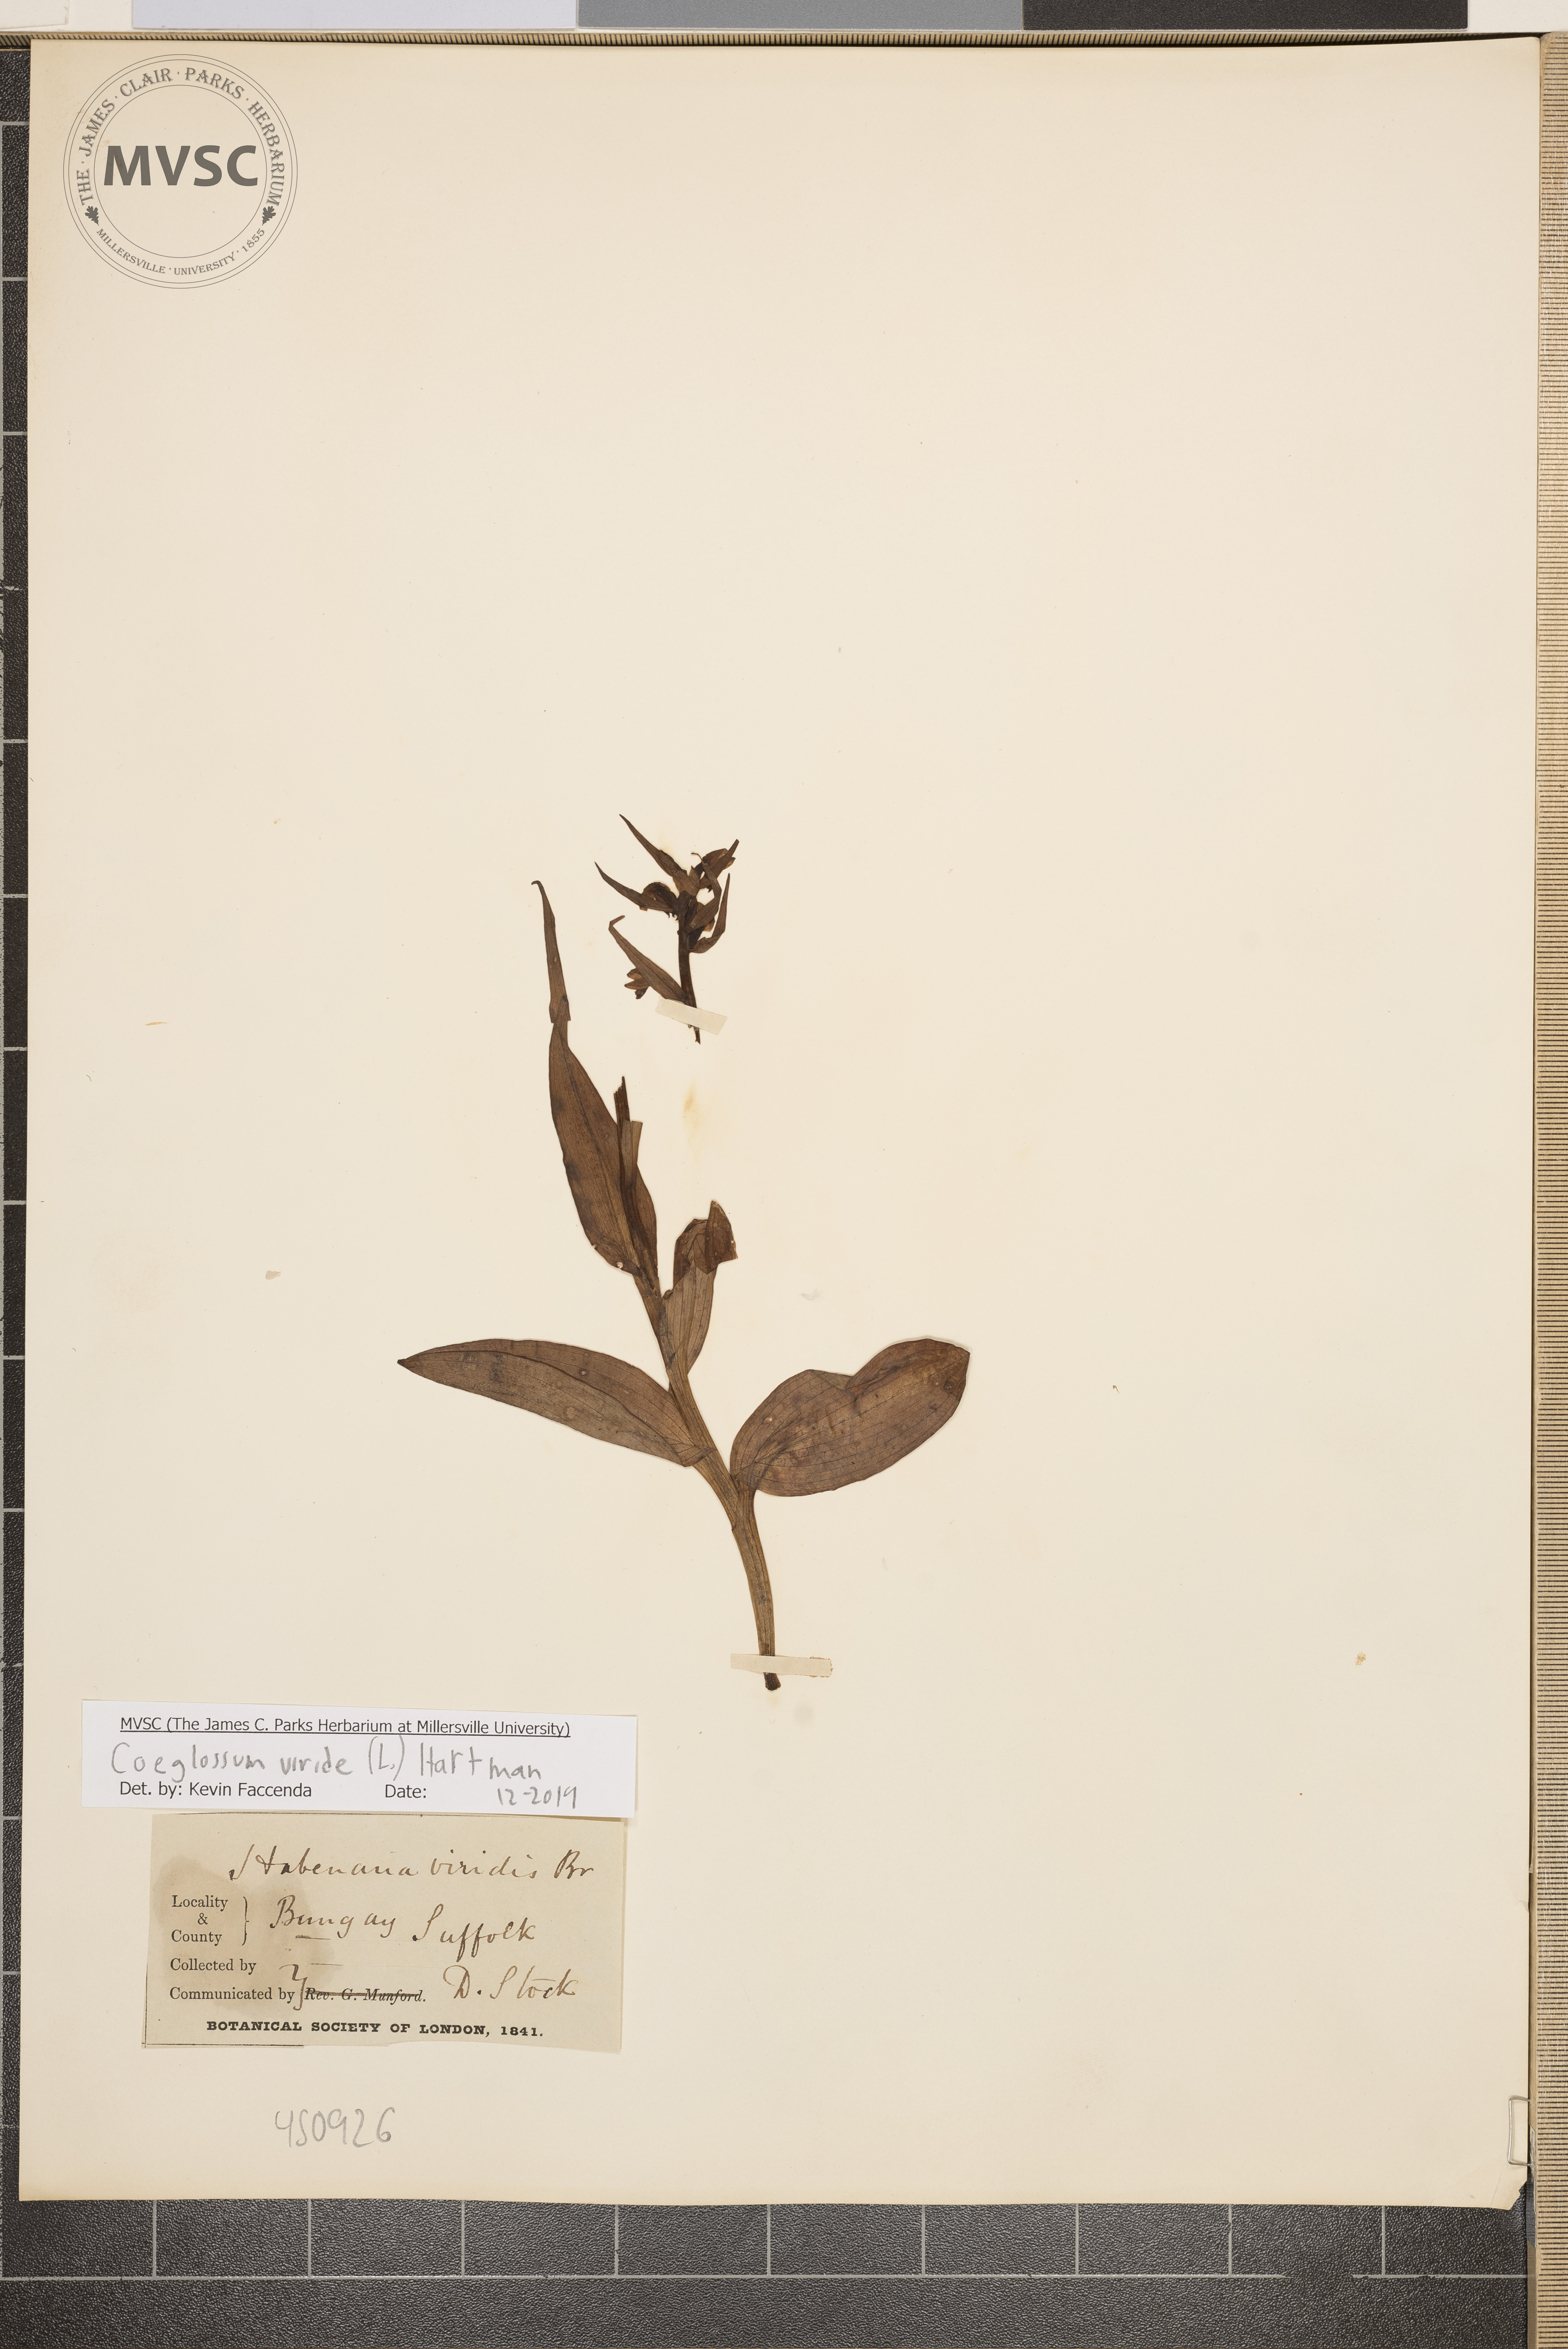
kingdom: Plantae
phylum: Tracheophyta
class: Liliopsida
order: Asparagales
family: Orchidaceae
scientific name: Orchidaceae
